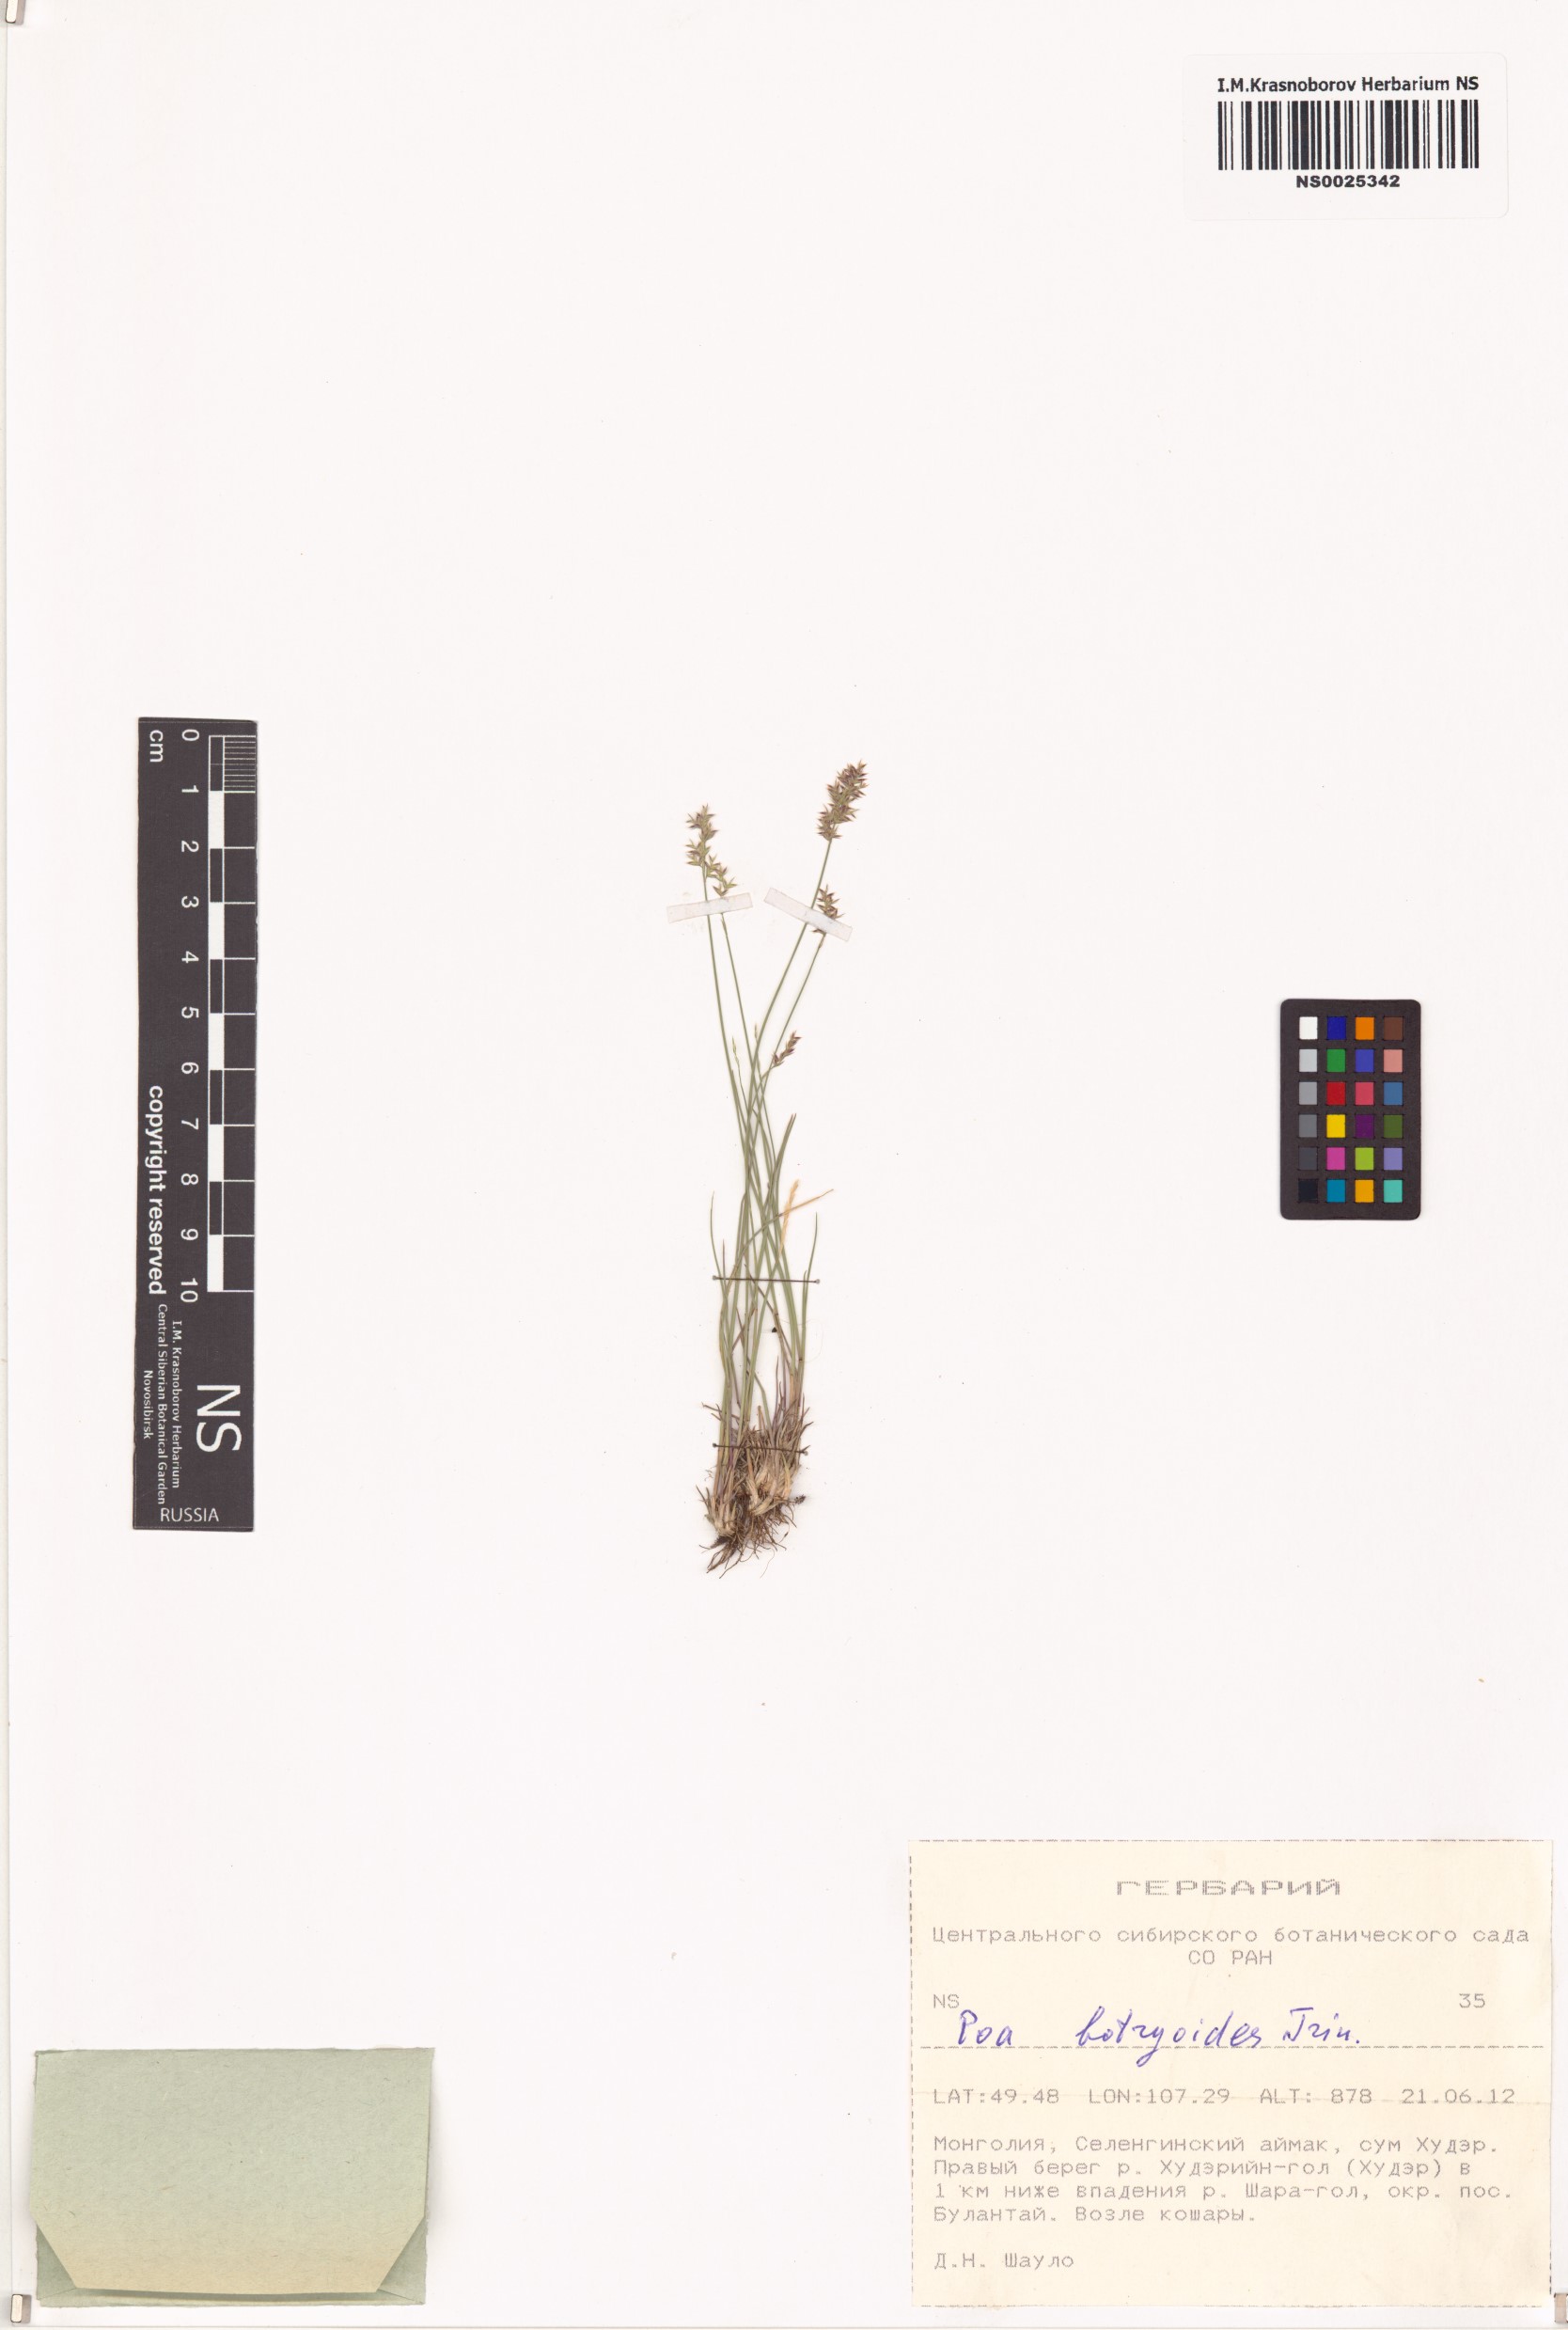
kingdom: Plantae
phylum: Tracheophyta
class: Liliopsida
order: Poales
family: Poaceae
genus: Poa
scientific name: Poa attenuata
